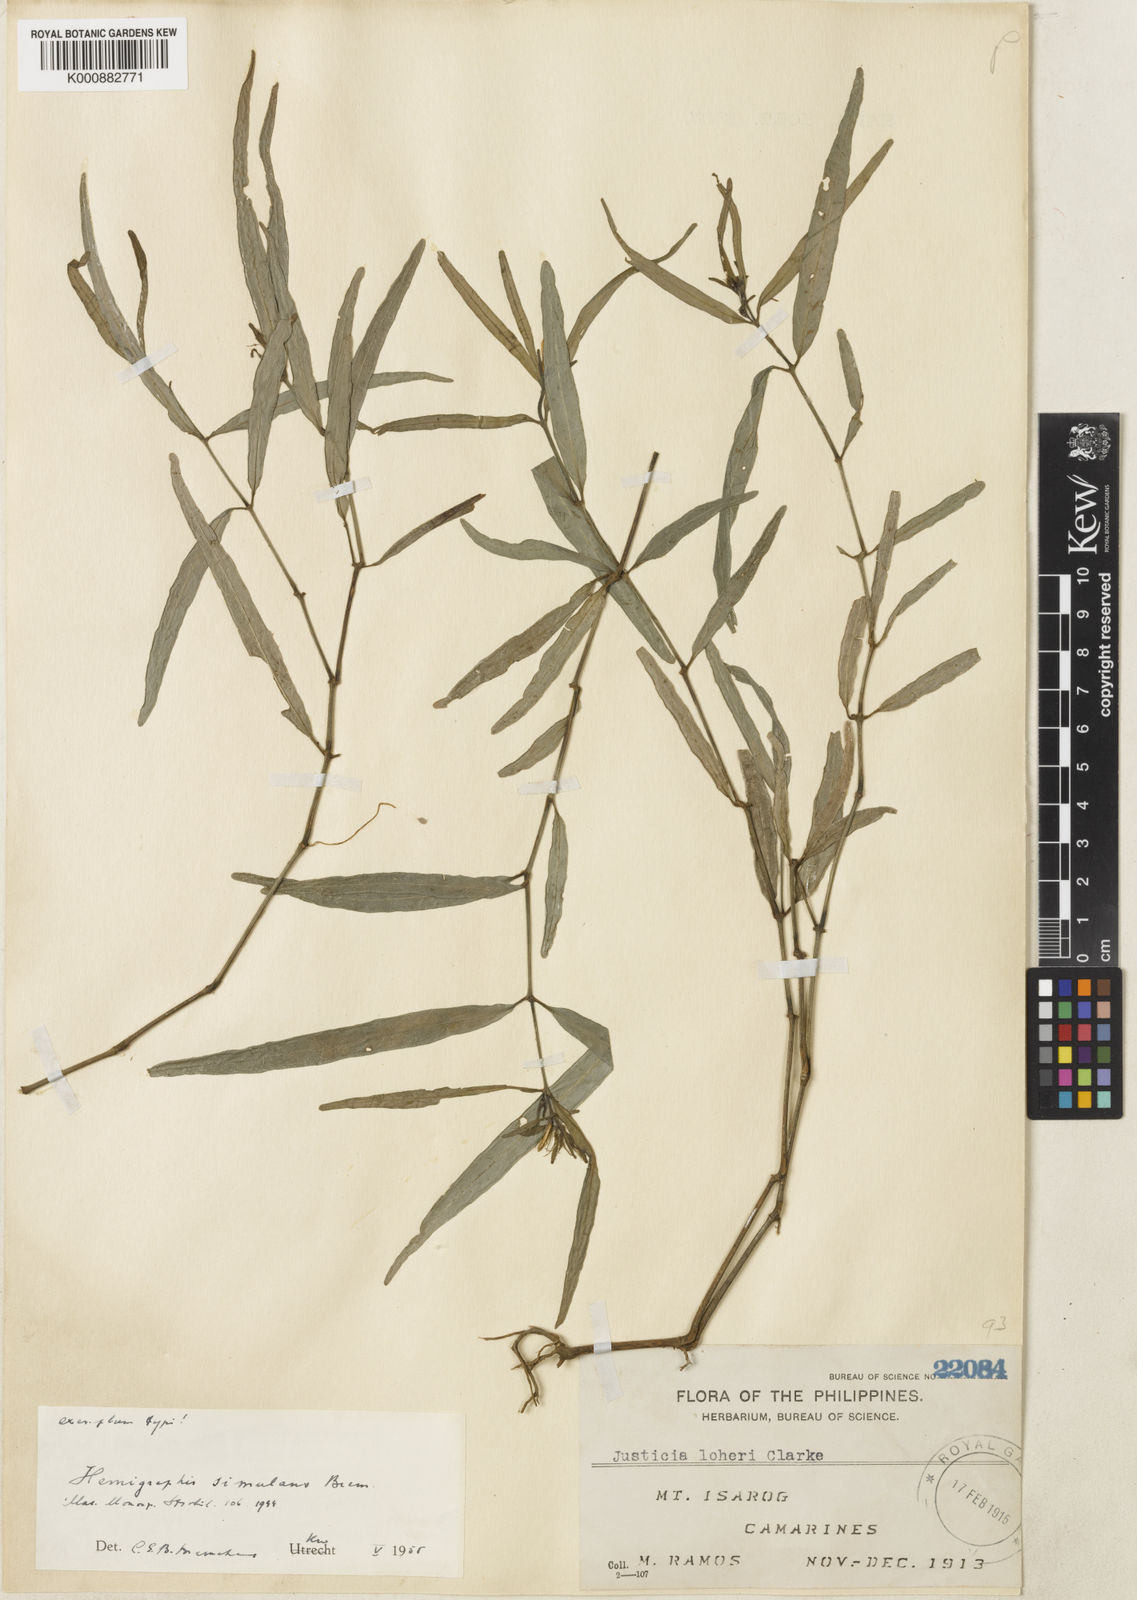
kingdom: Plantae
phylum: Tracheophyta
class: Magnoliopsida
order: Lamiales
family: Acanthaceae
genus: Strobilanthes
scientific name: Strobilanthes linearifolia
